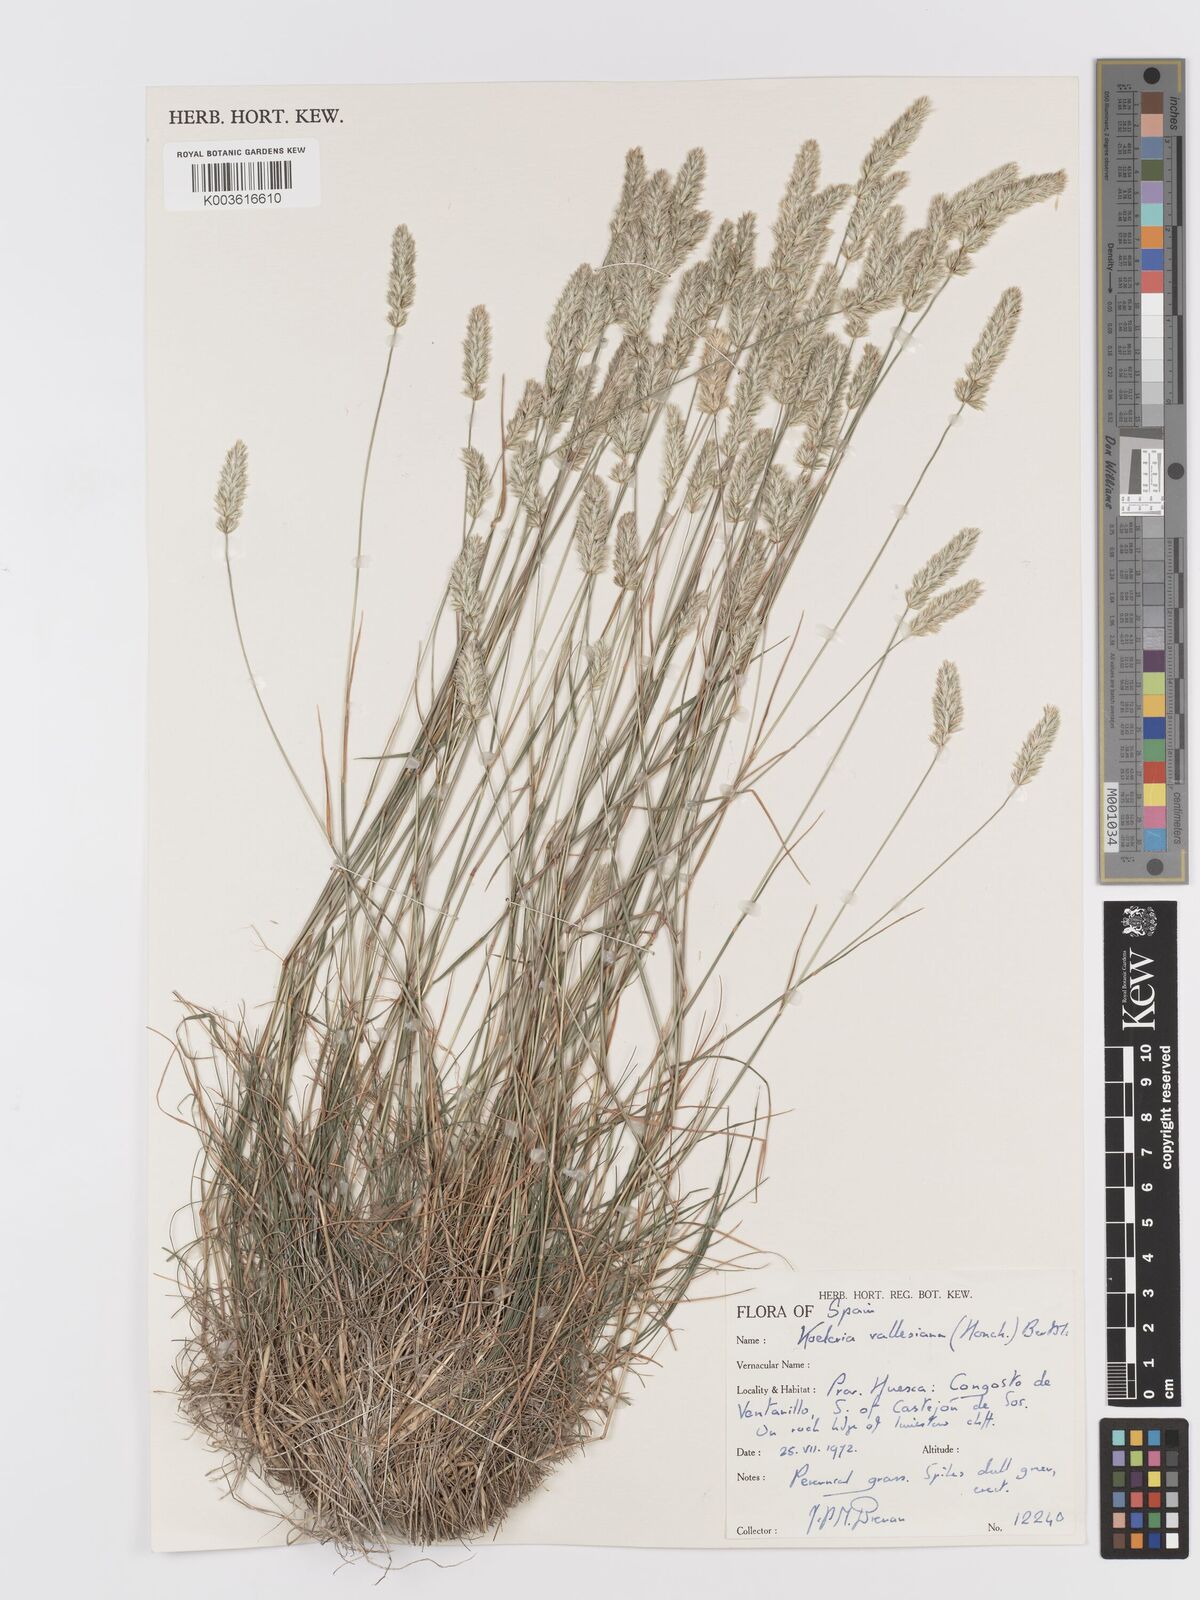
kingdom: Plantae
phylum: Tracheophyta
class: Liliopsida
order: Poales
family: Poaceae
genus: Koeleria
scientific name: Koeleria vallesiana
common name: Somerset hair-grass
